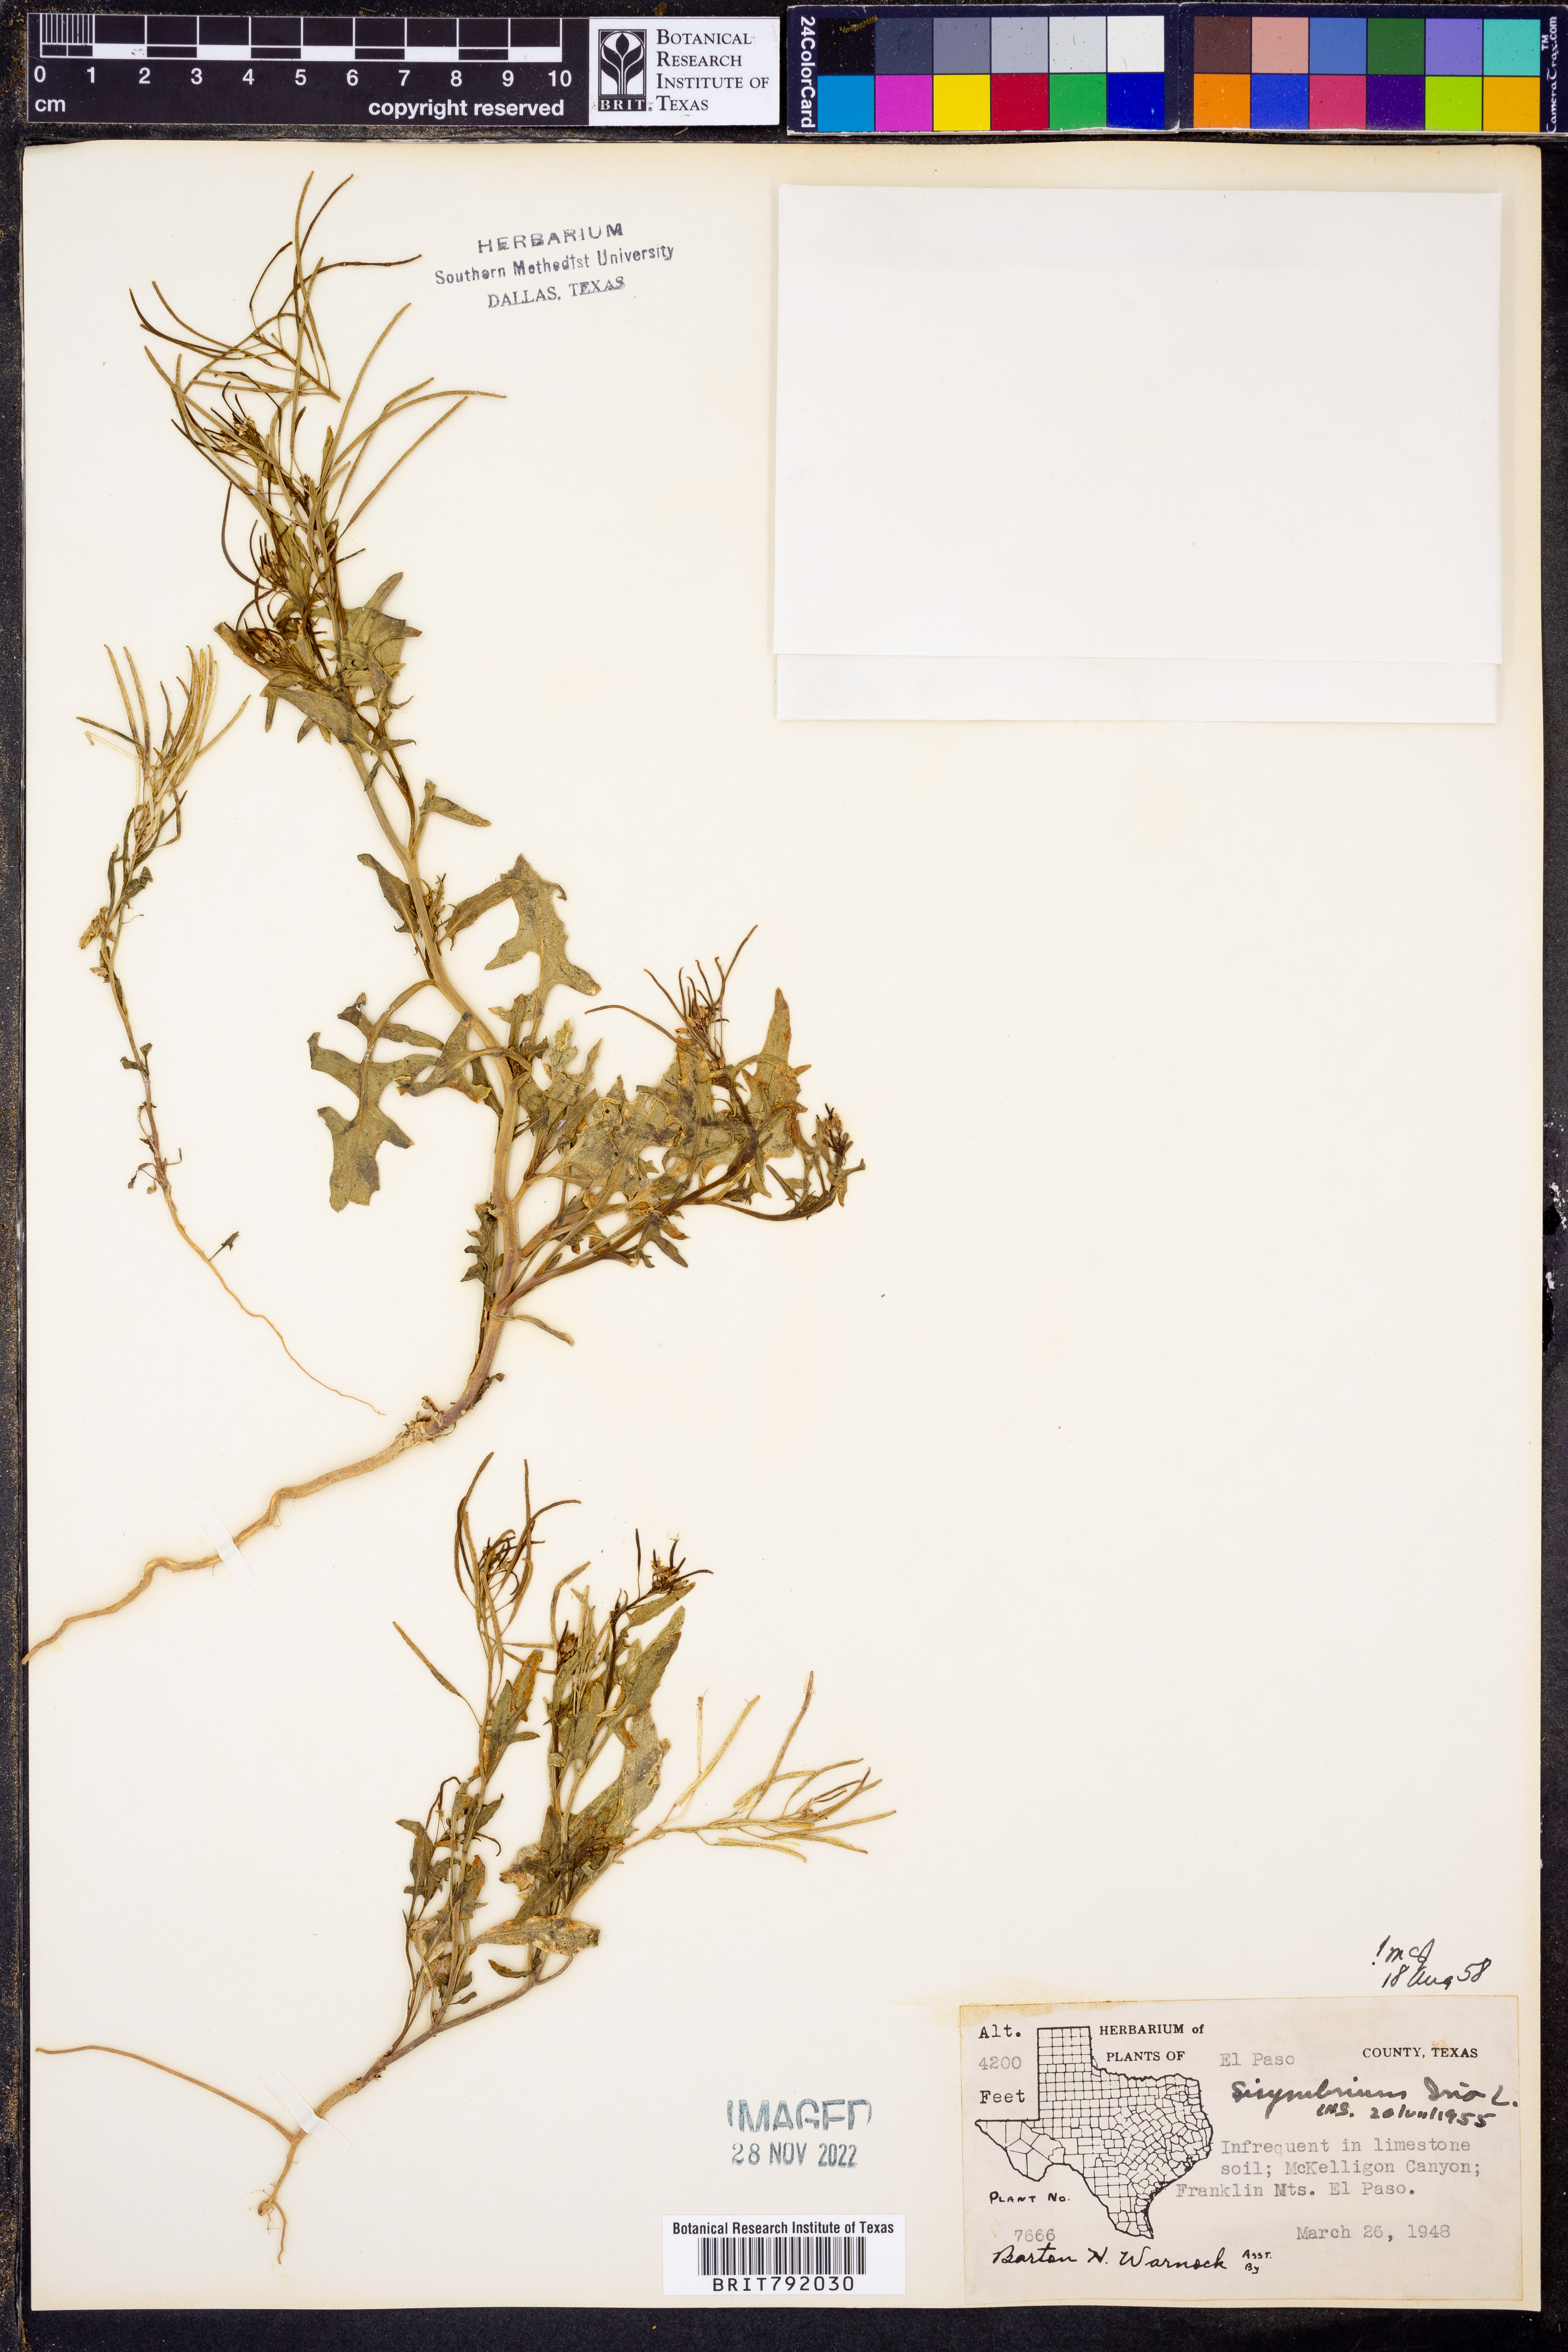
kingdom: Plantae
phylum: Tracheophyta
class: Magnoliopsida
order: Brassicales
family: Brassicaceae
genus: Sisymbrium
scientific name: Sisymbrium irio
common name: London rocket
